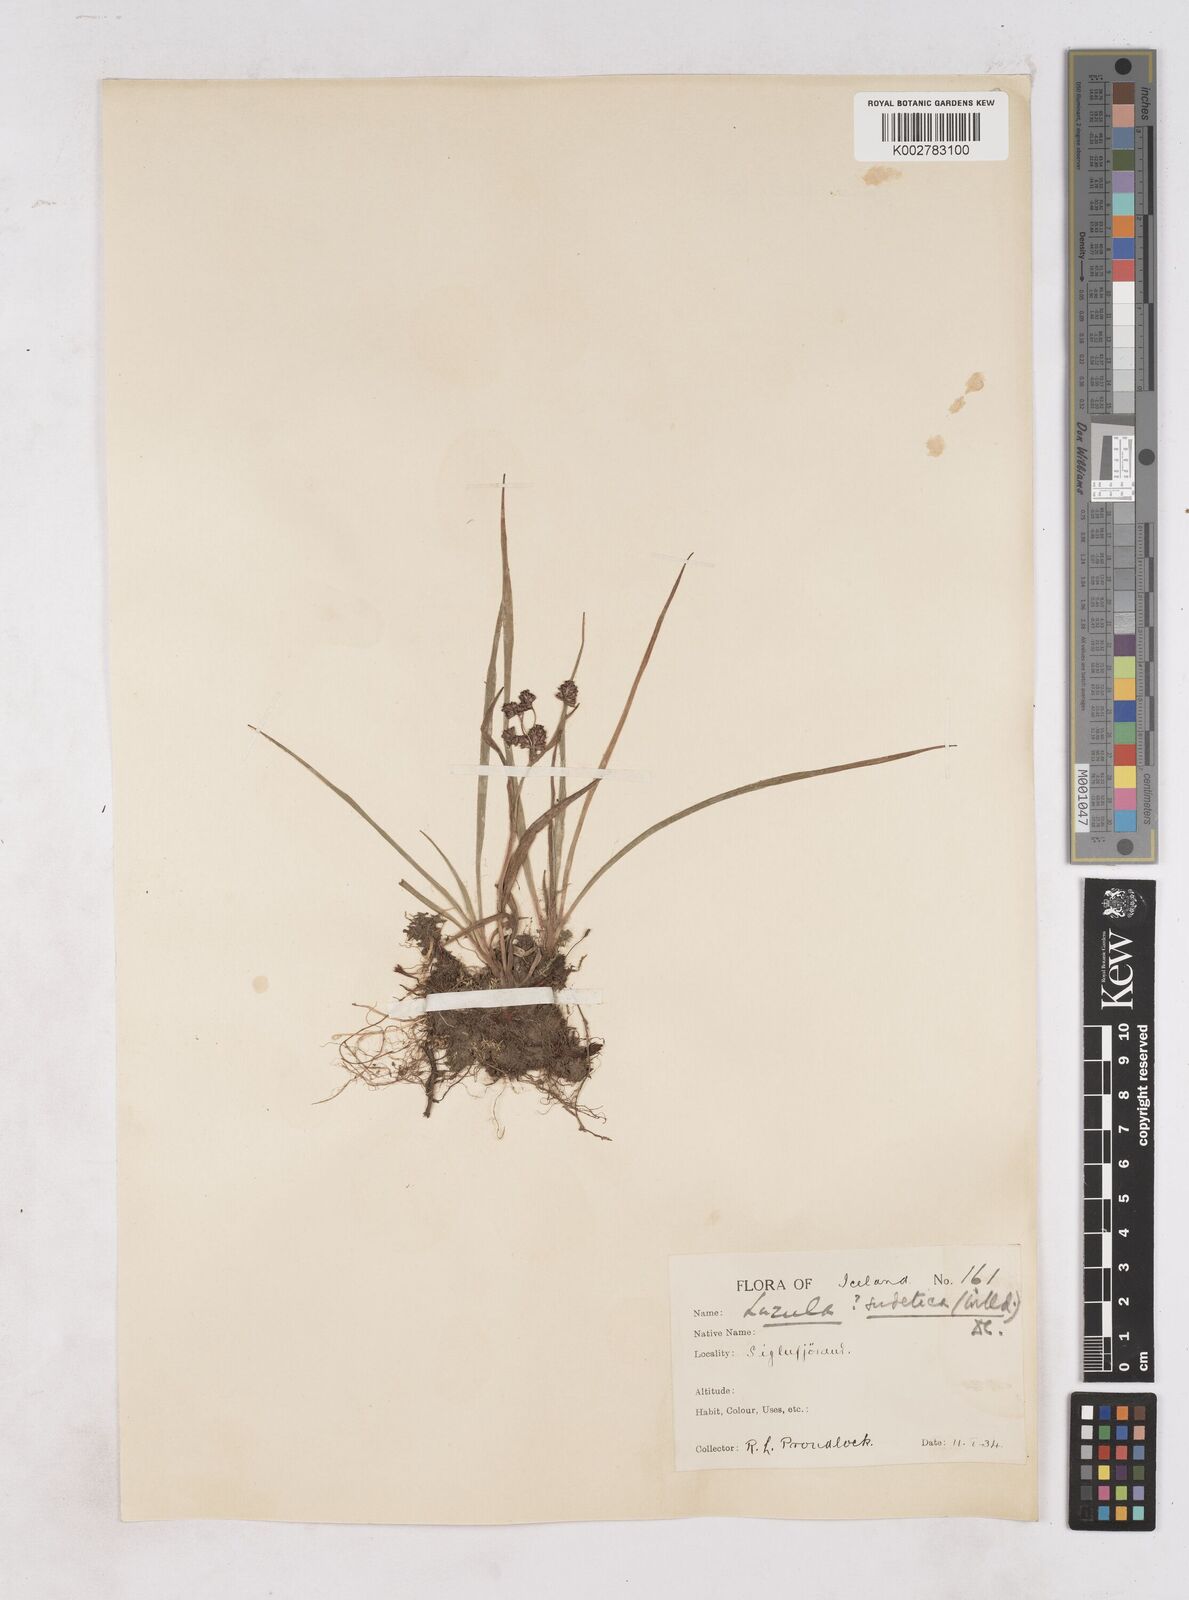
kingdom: Plantae
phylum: Tracheophyta
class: Liliopsida
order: Poales
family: Juncaceae
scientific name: Juncaceae
